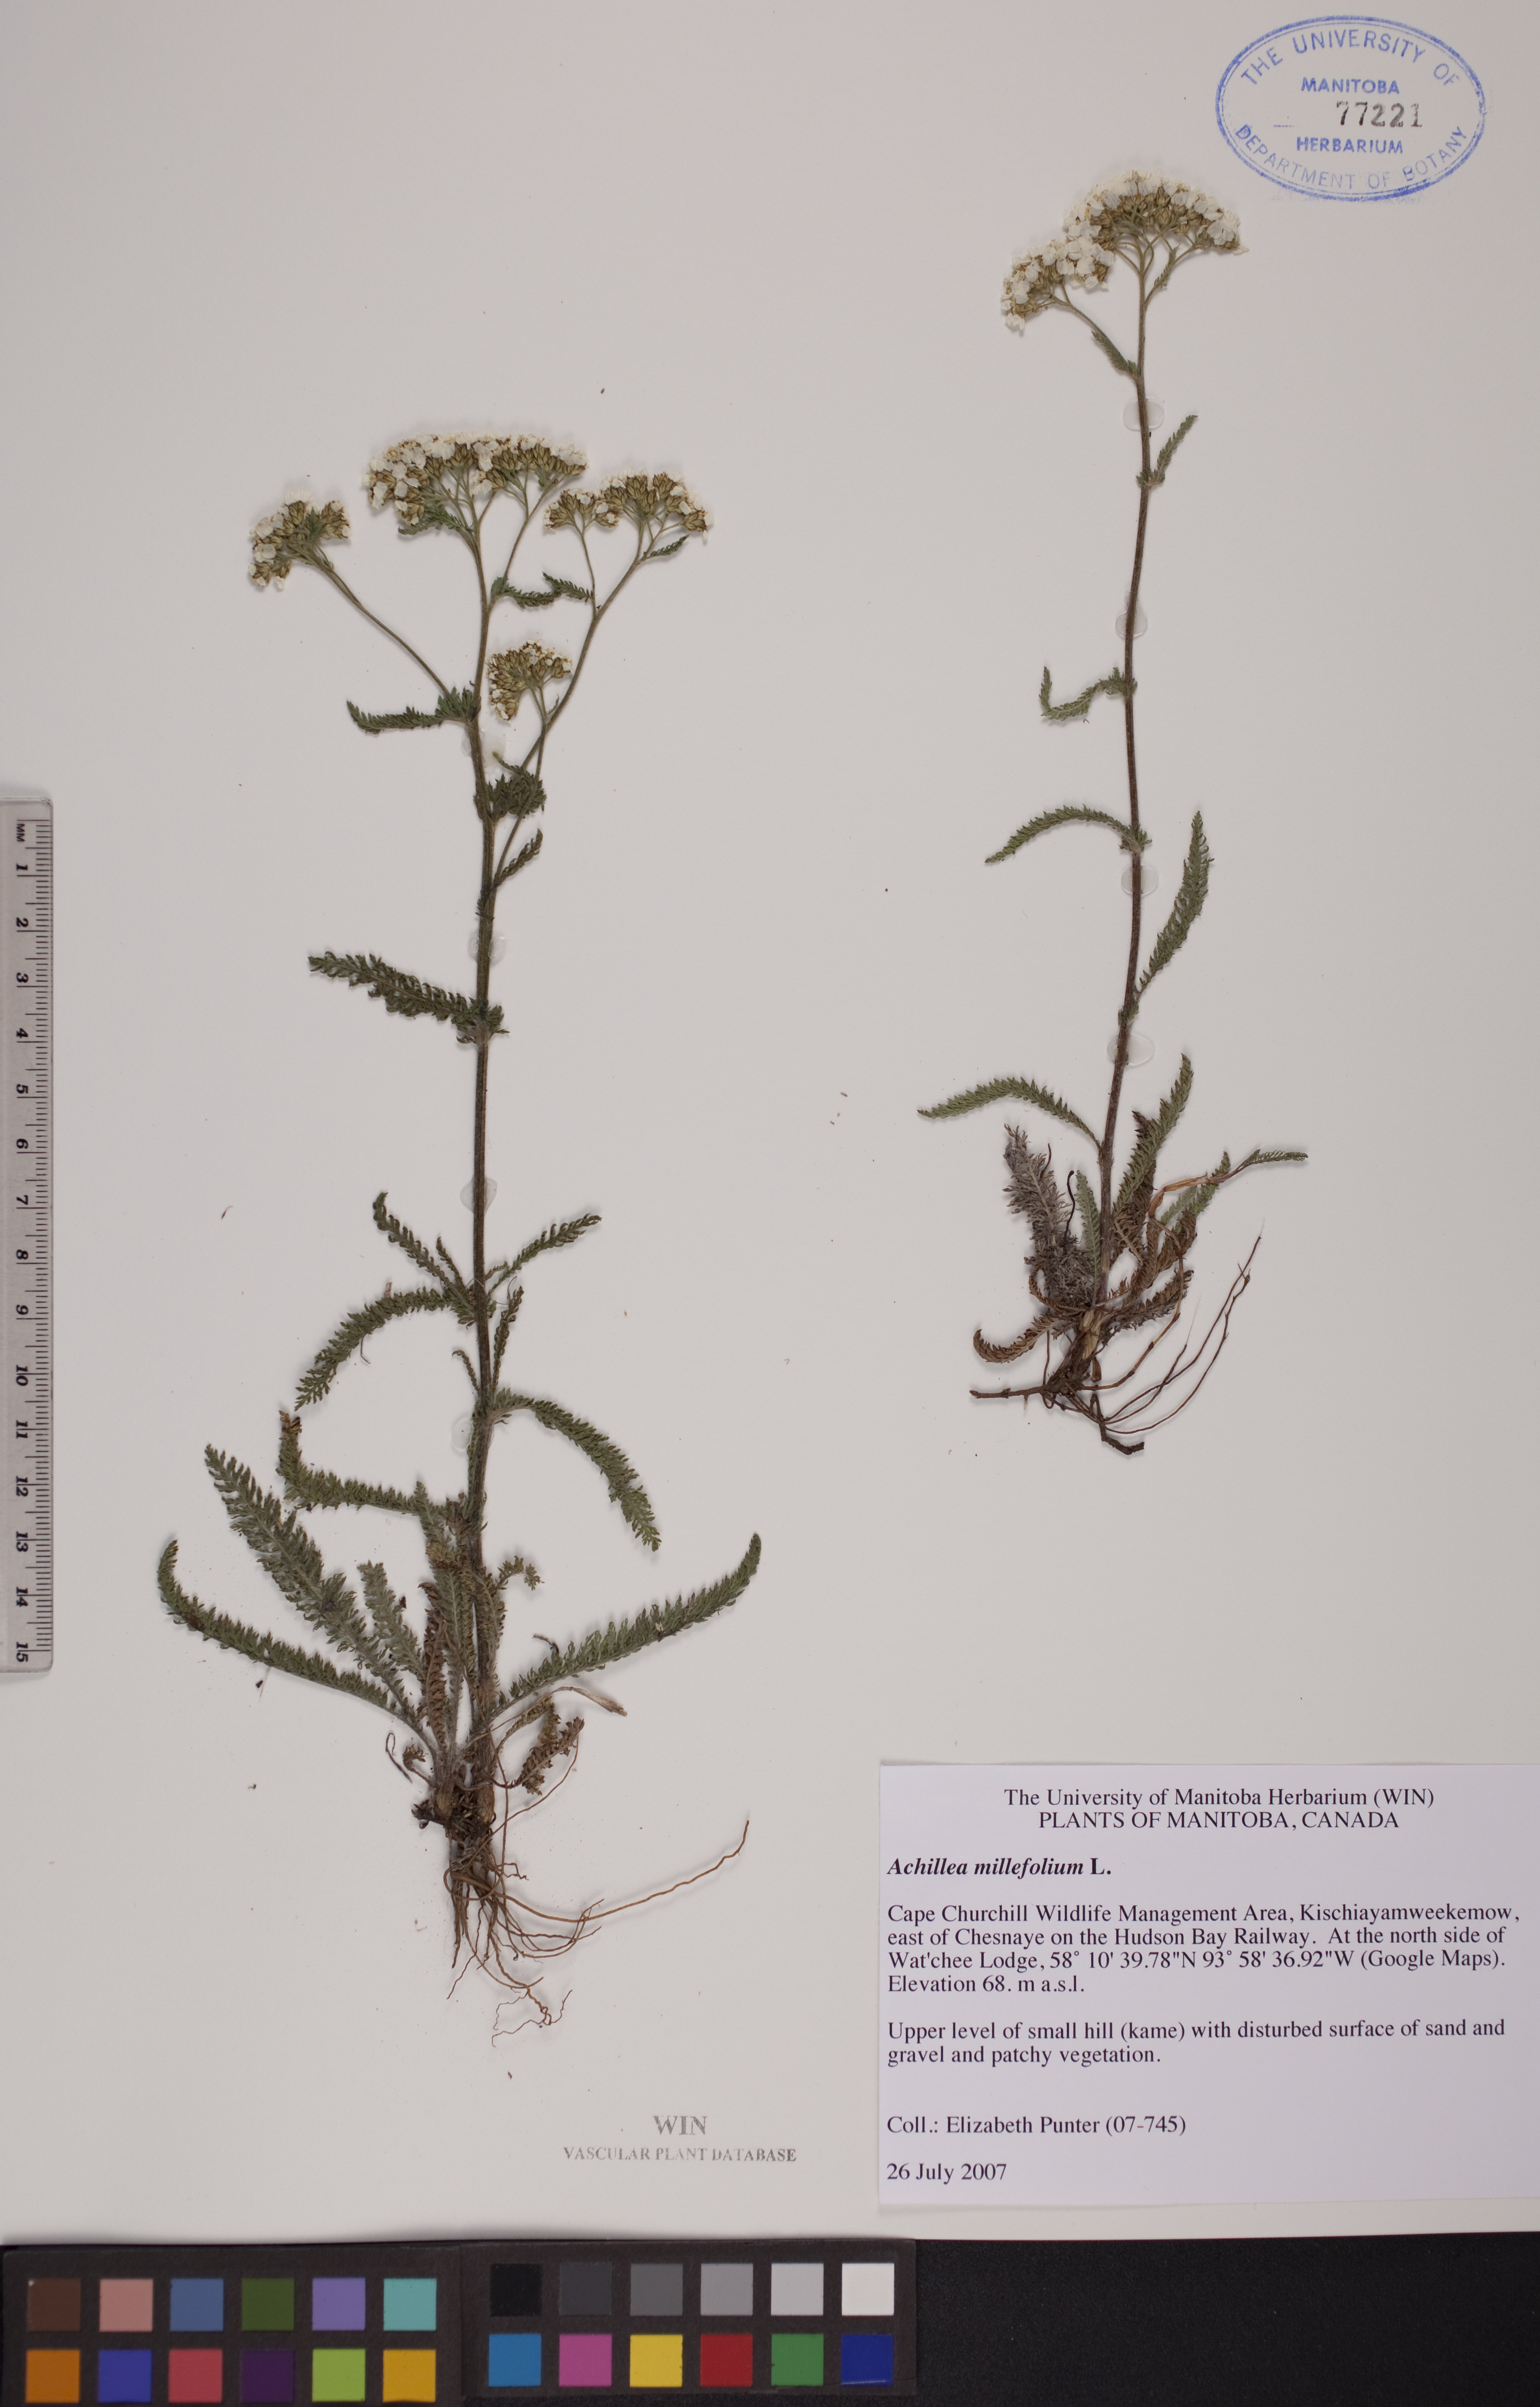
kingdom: Plantae
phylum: Tracheophyta
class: Magnoliopsida
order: Asterales
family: Asteraceae
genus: Achillea
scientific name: Achillea millefolium
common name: Yarrow
